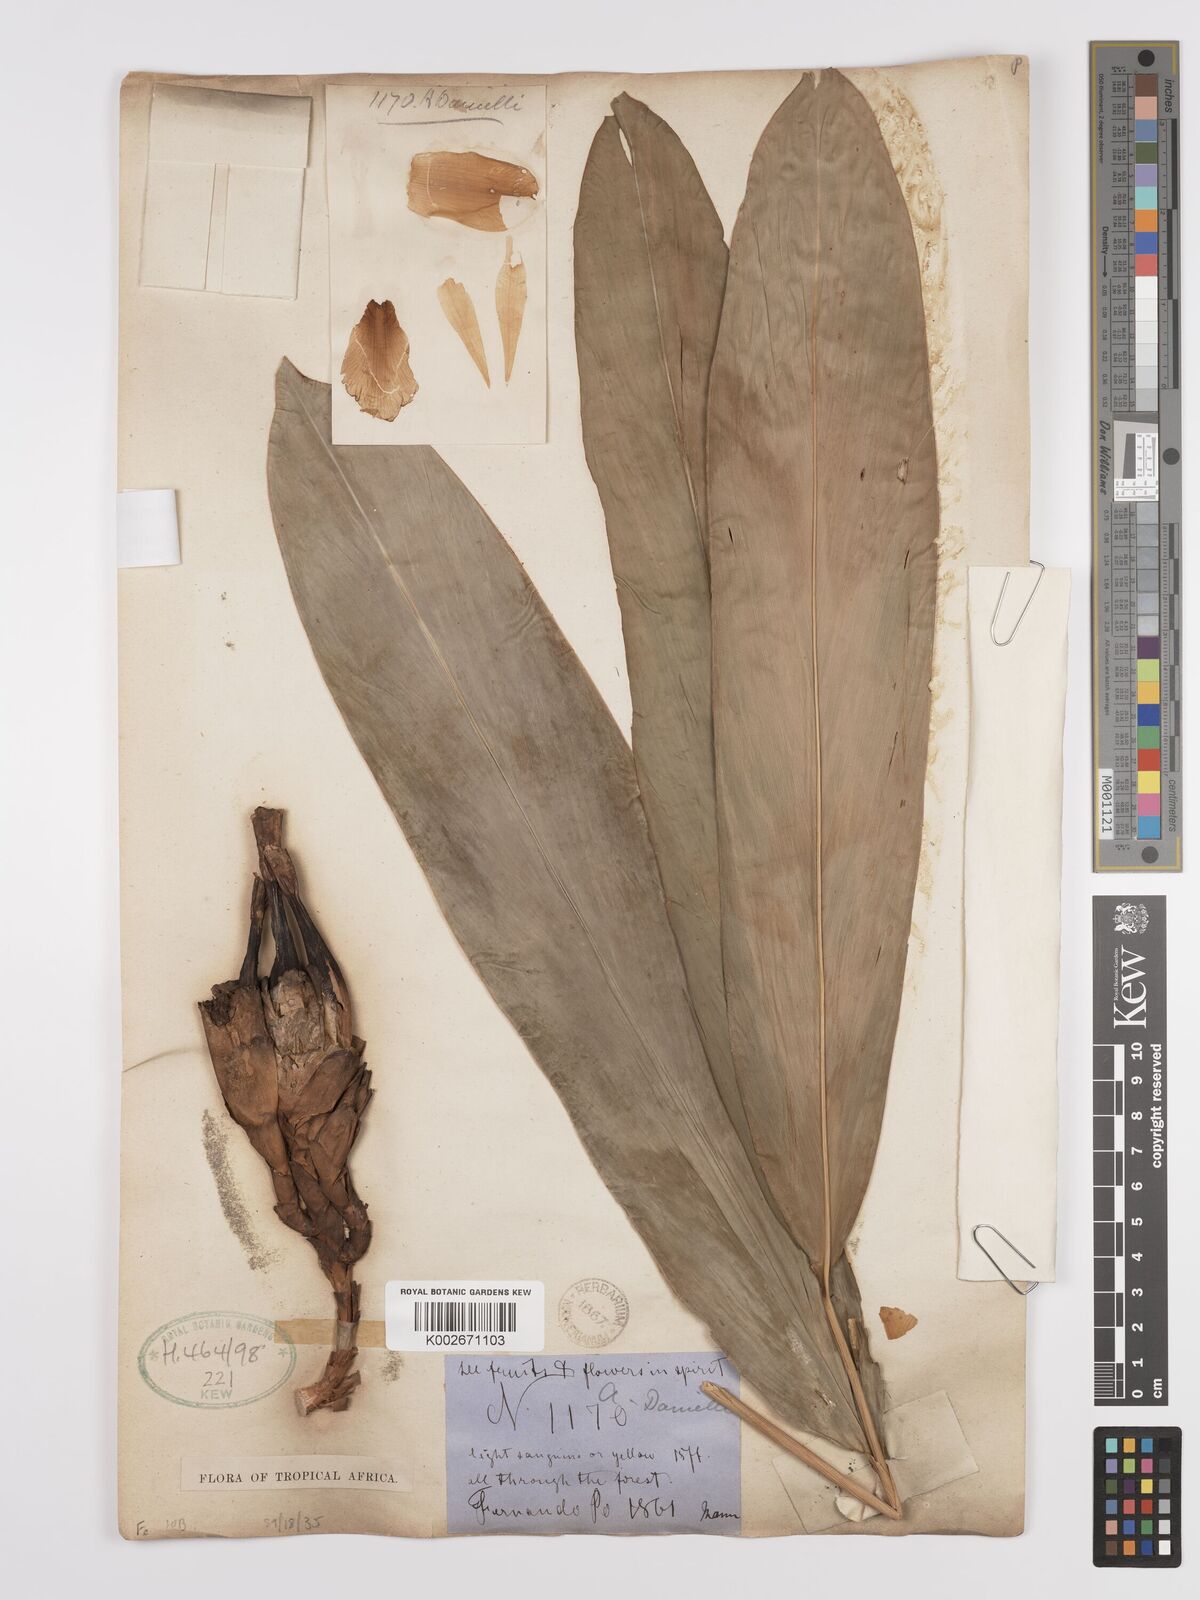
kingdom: Plantae
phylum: Tracheophyta
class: Liliopsida
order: Zingiberales
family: Zingiberaceae
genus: Aframomum
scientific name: Aframomum daniellii
